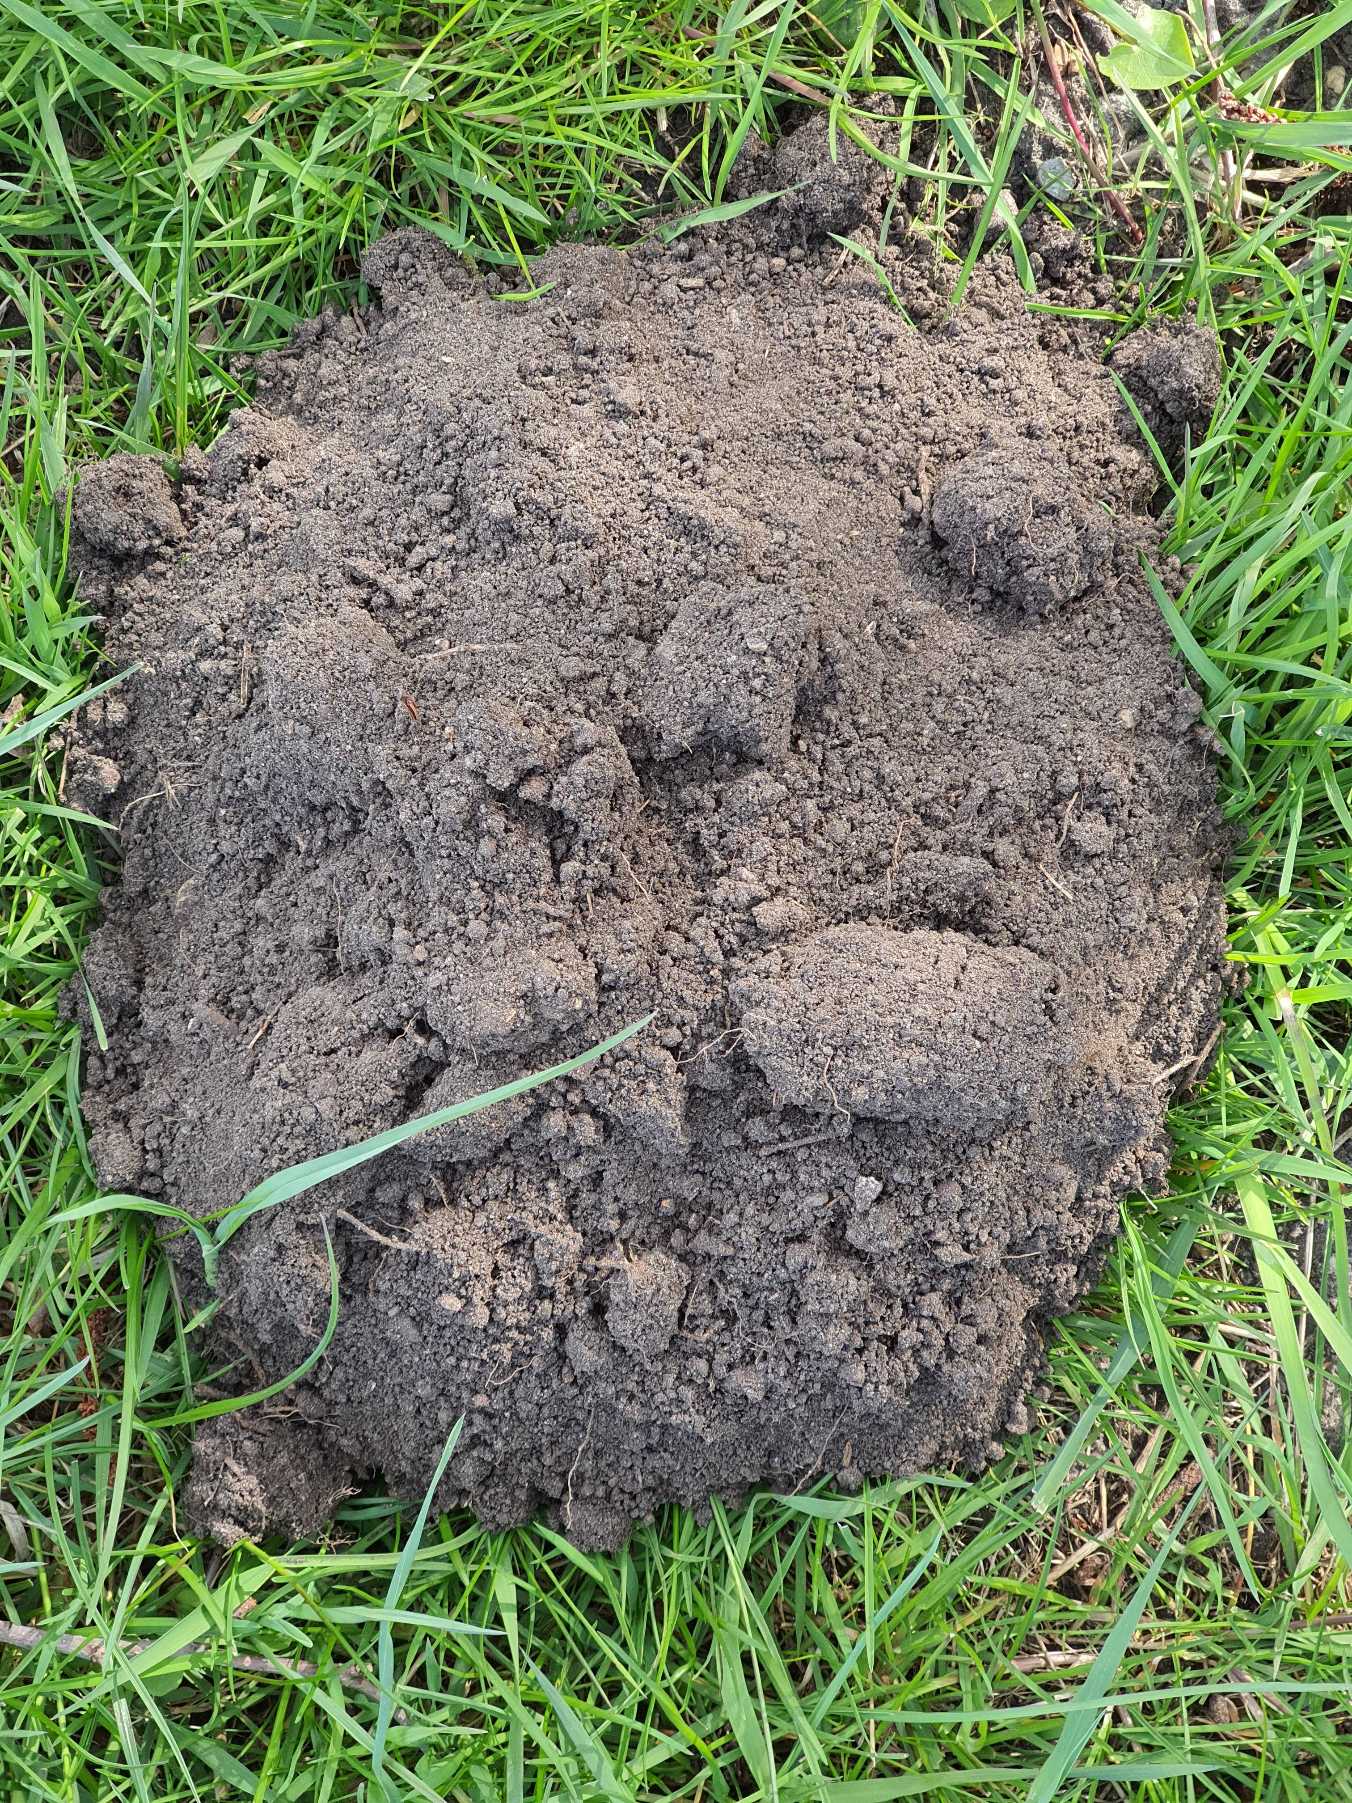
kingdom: Animalia
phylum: Chordata
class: Mammalia
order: Soricomorpha
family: Talpidae
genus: Talpa
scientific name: Talpa europaea
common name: Muldvarp
